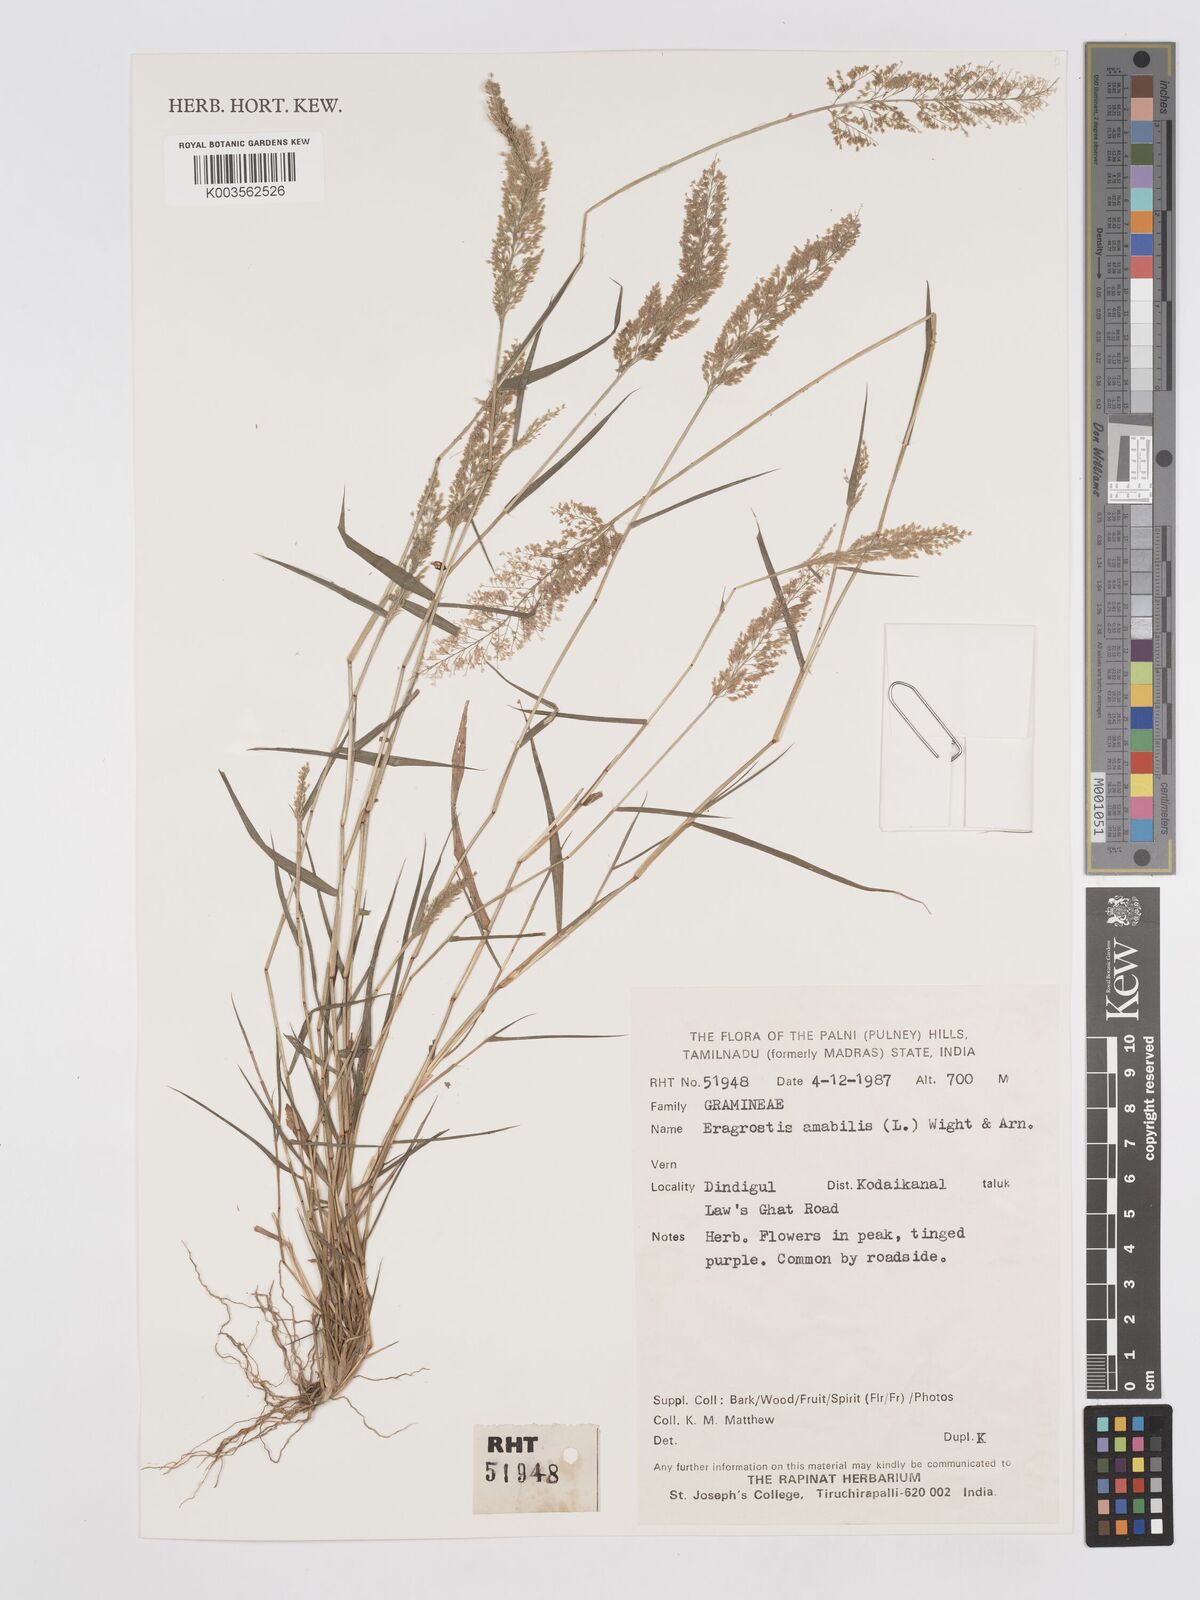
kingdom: Plantae
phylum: Tracheophyta
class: Liliopsida
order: Poales
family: Poaceae
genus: Eragrostis
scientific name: Eragrostis tenella
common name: Japanese lovegrass
